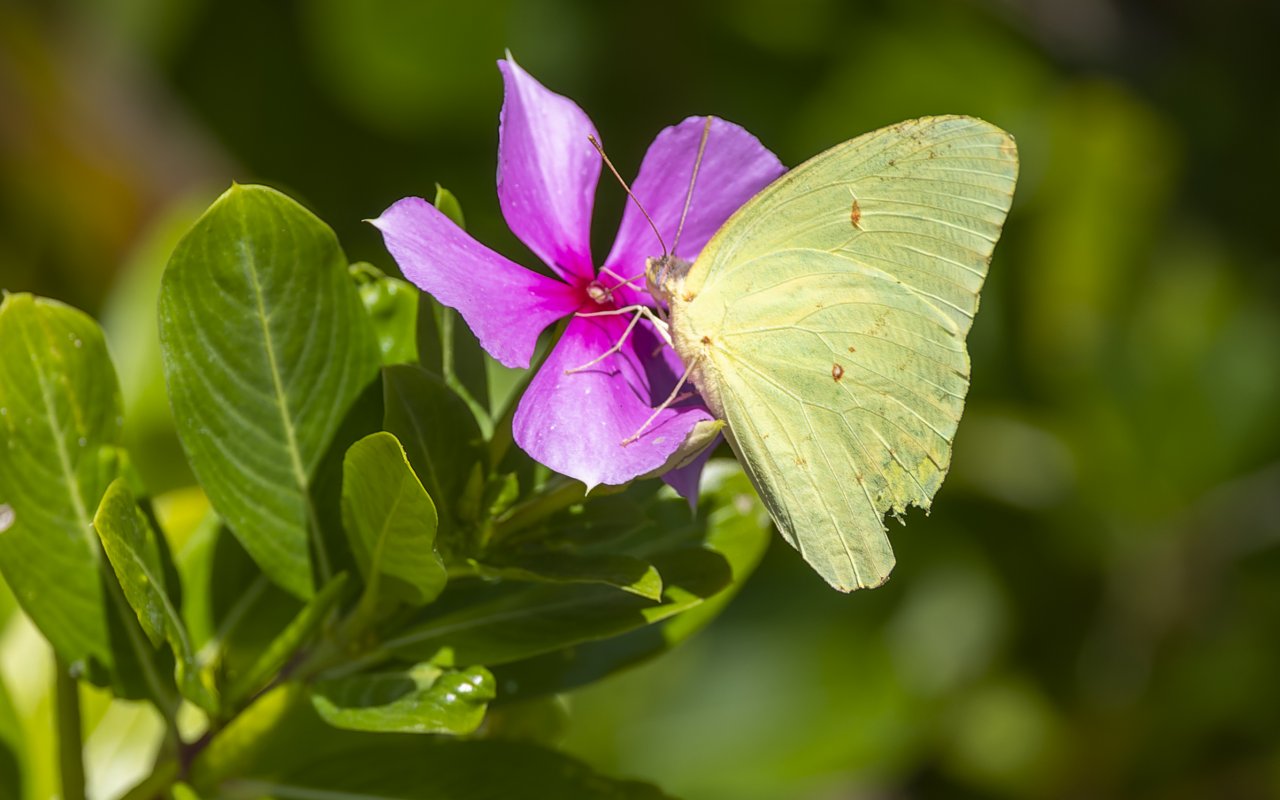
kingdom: Animalia
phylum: Arthropoda
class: Insecta
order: Lepidoptera
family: Pieridae
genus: Phoebis
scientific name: Phoebis sennae
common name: Cloudless Sulphur
